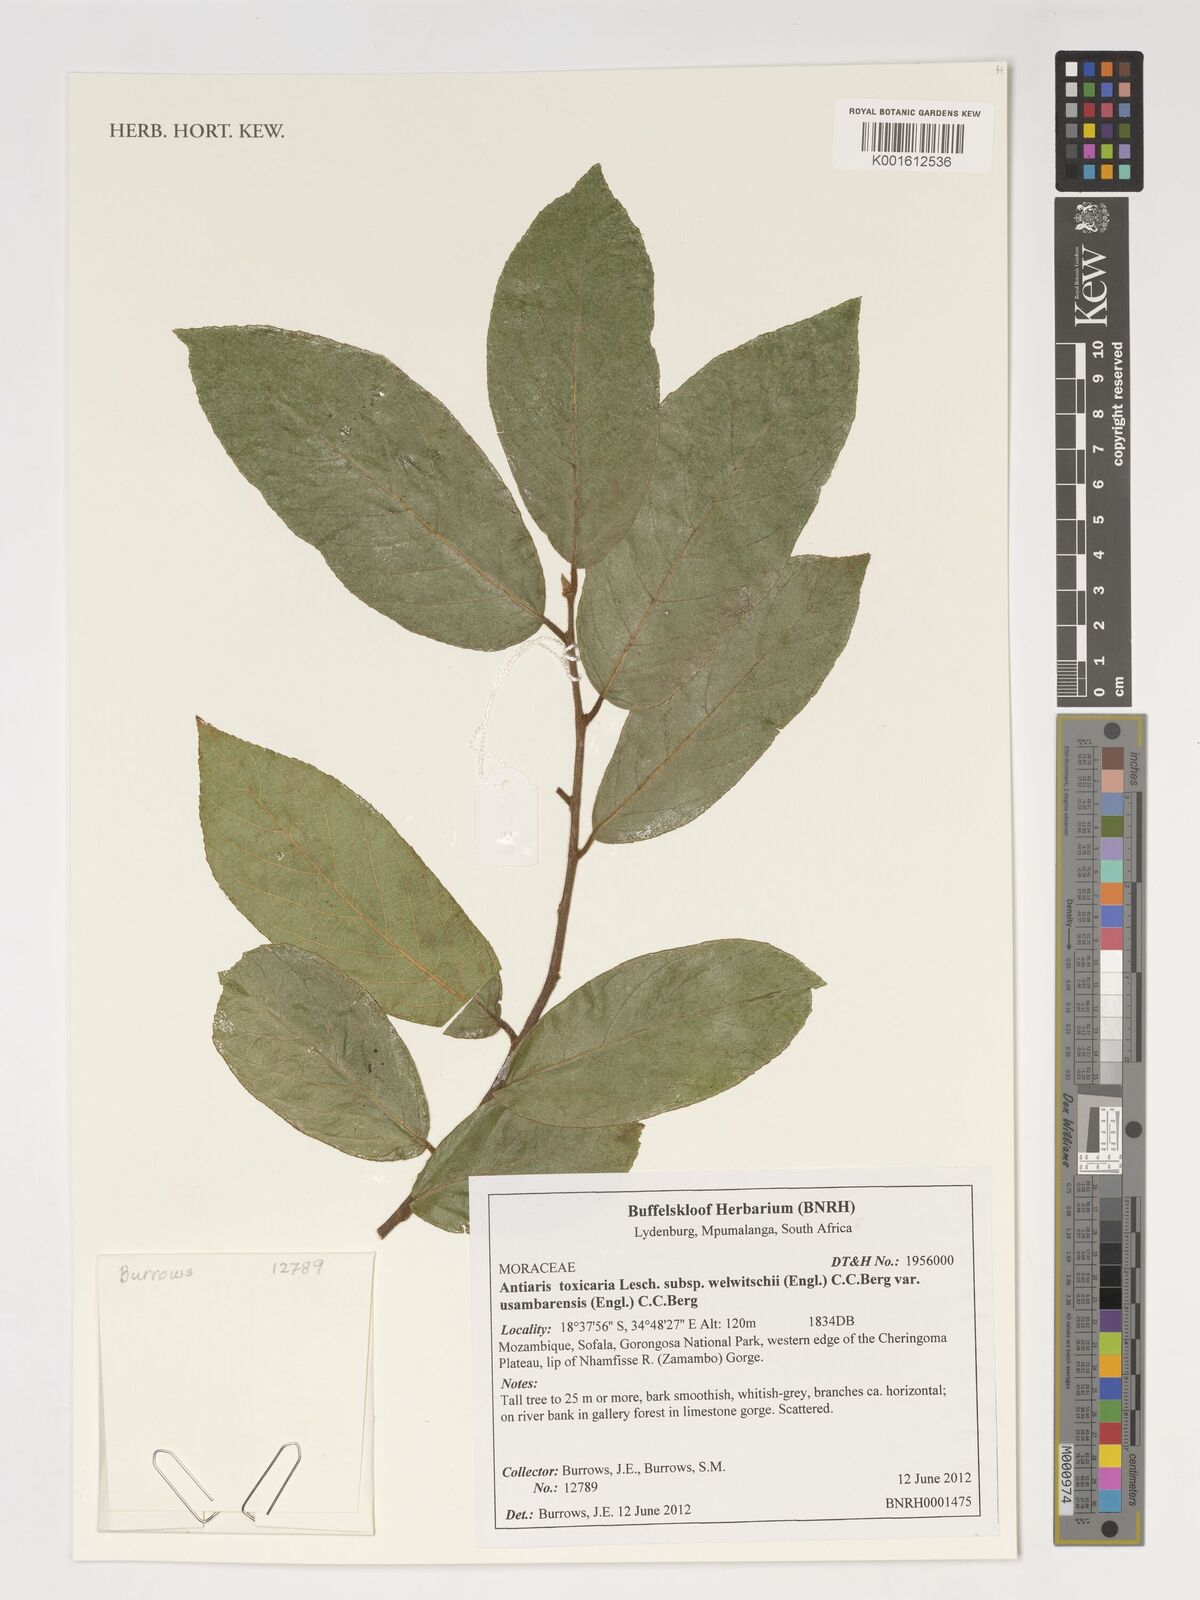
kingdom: Plantae
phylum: Tracheophyta
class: Magnoliopsida
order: Rosales
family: Moraceae
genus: Antiaris
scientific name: Antiaris toxicaria
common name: Sackingtree
